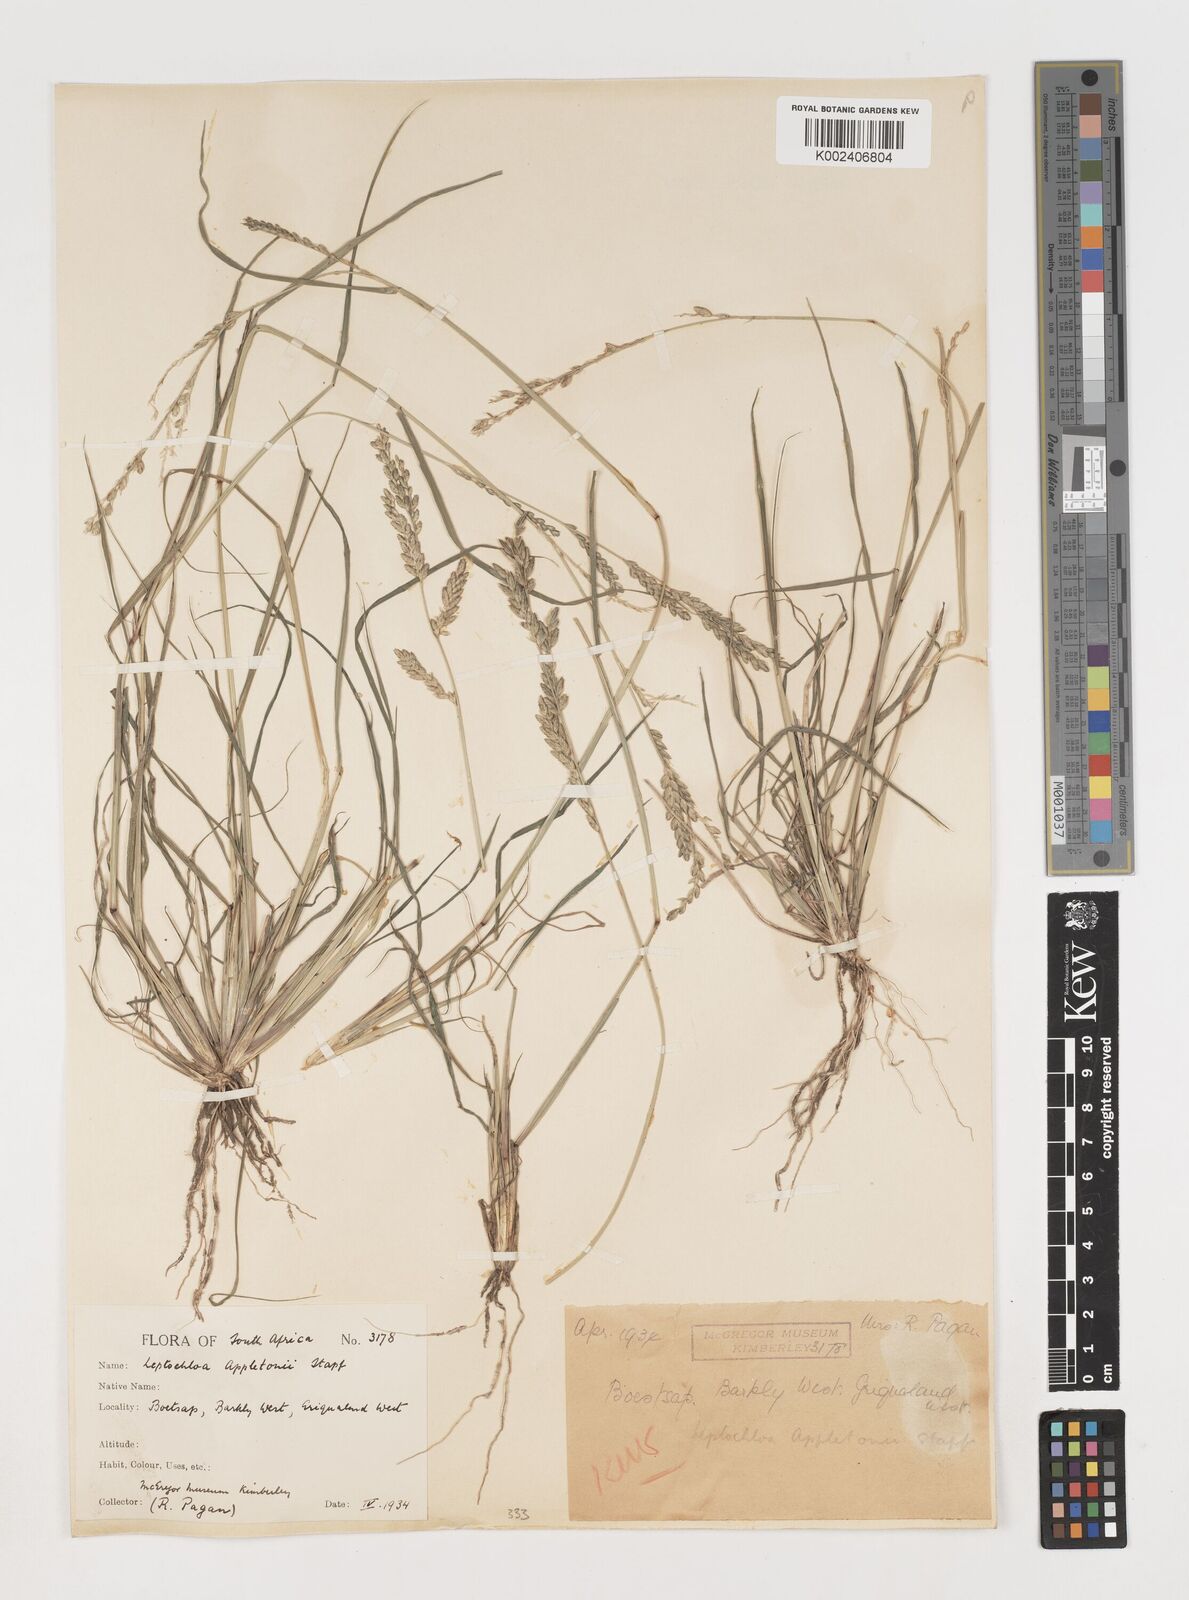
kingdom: Plantae
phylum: Tracheophyta
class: Liliopsida
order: Poales
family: Poaceae
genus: Disakisperma
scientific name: Disakisperma yemenicum
